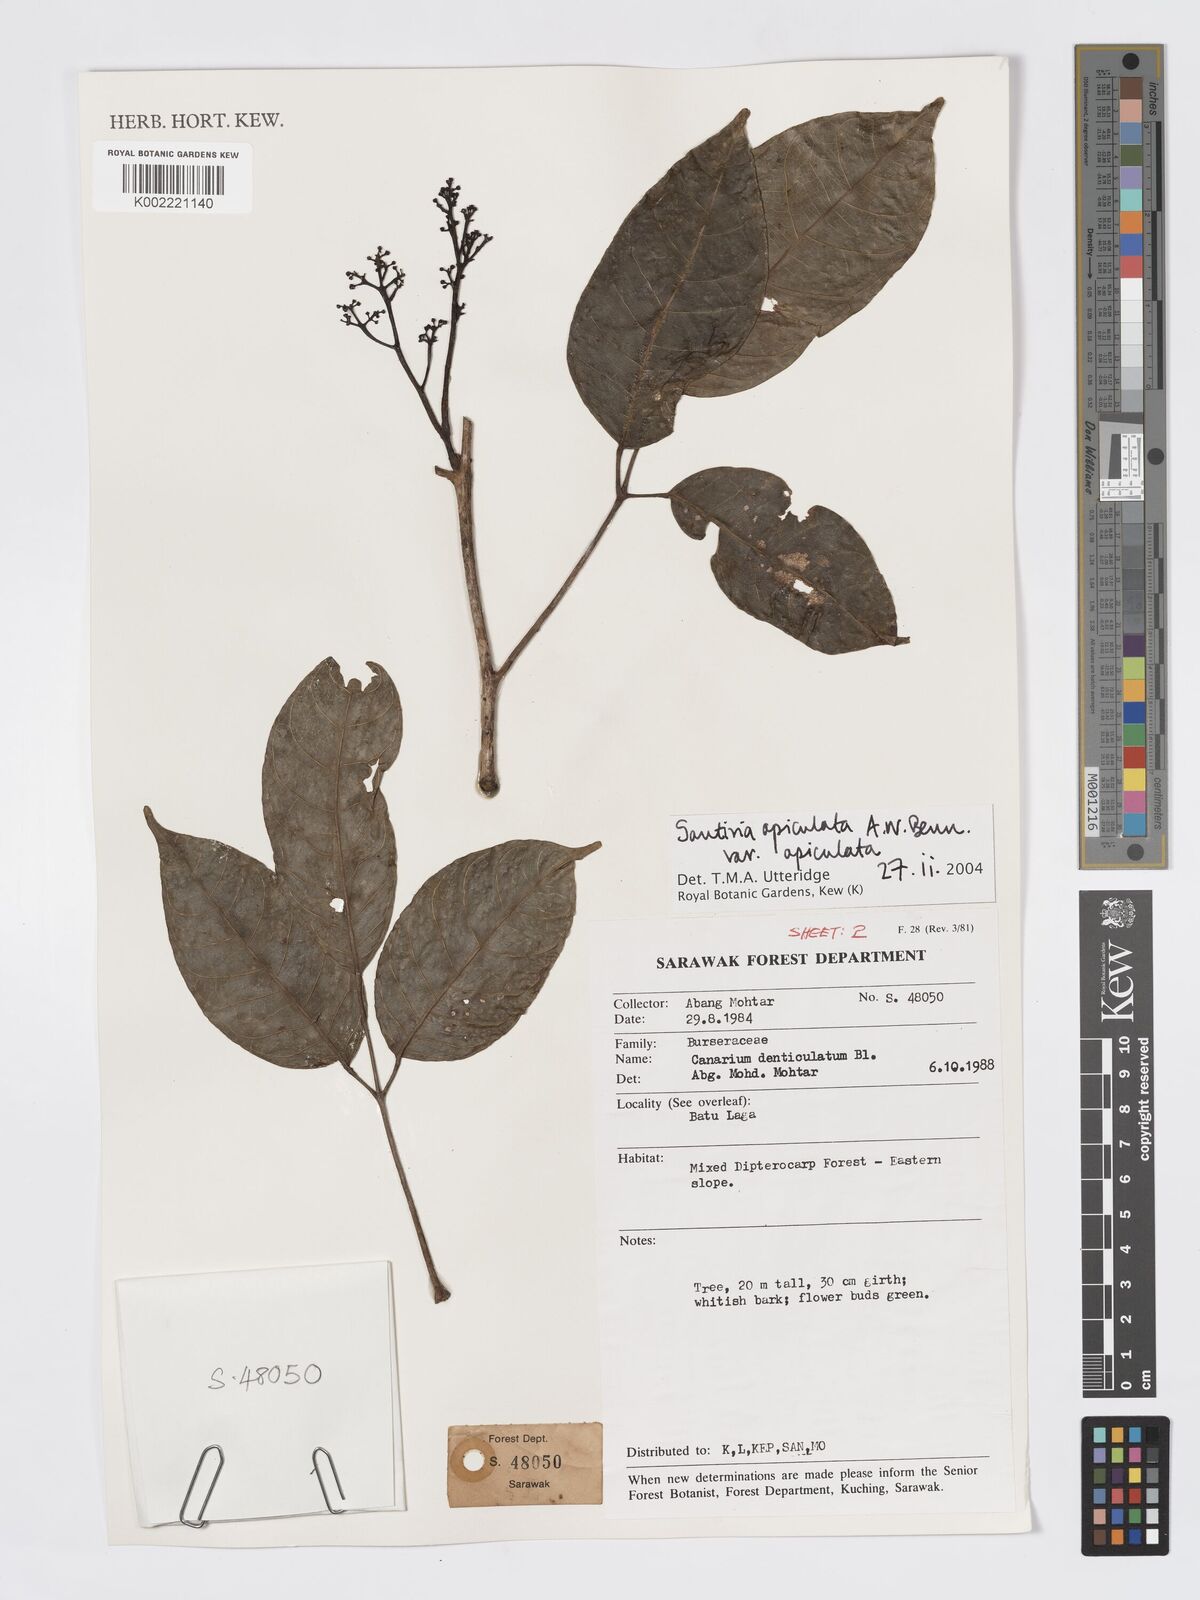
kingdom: Plantae
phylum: Tracheophyta
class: Magnoliopsida
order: Sapindales
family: Burseraceae
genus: Santiria
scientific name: Santiria apiculata
